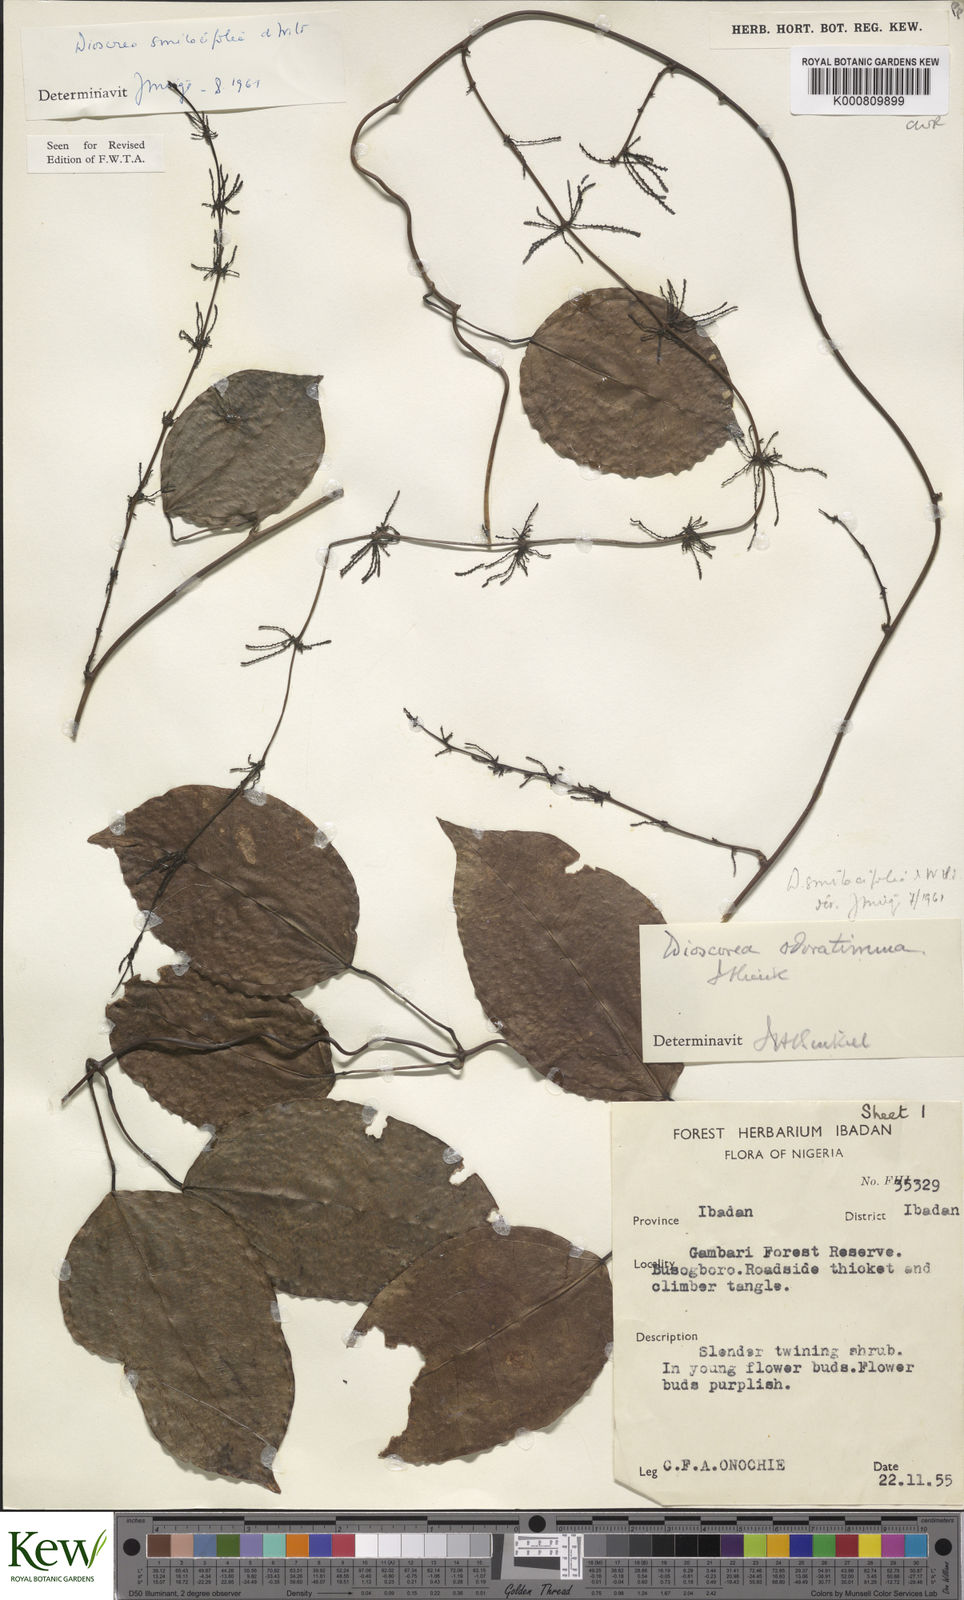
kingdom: Plantae
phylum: Tracheophyta
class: Liliopsida
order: Dioscoreales
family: Dioscoreaceae
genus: Dioscorea
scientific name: Dioscorea smilacifolia
